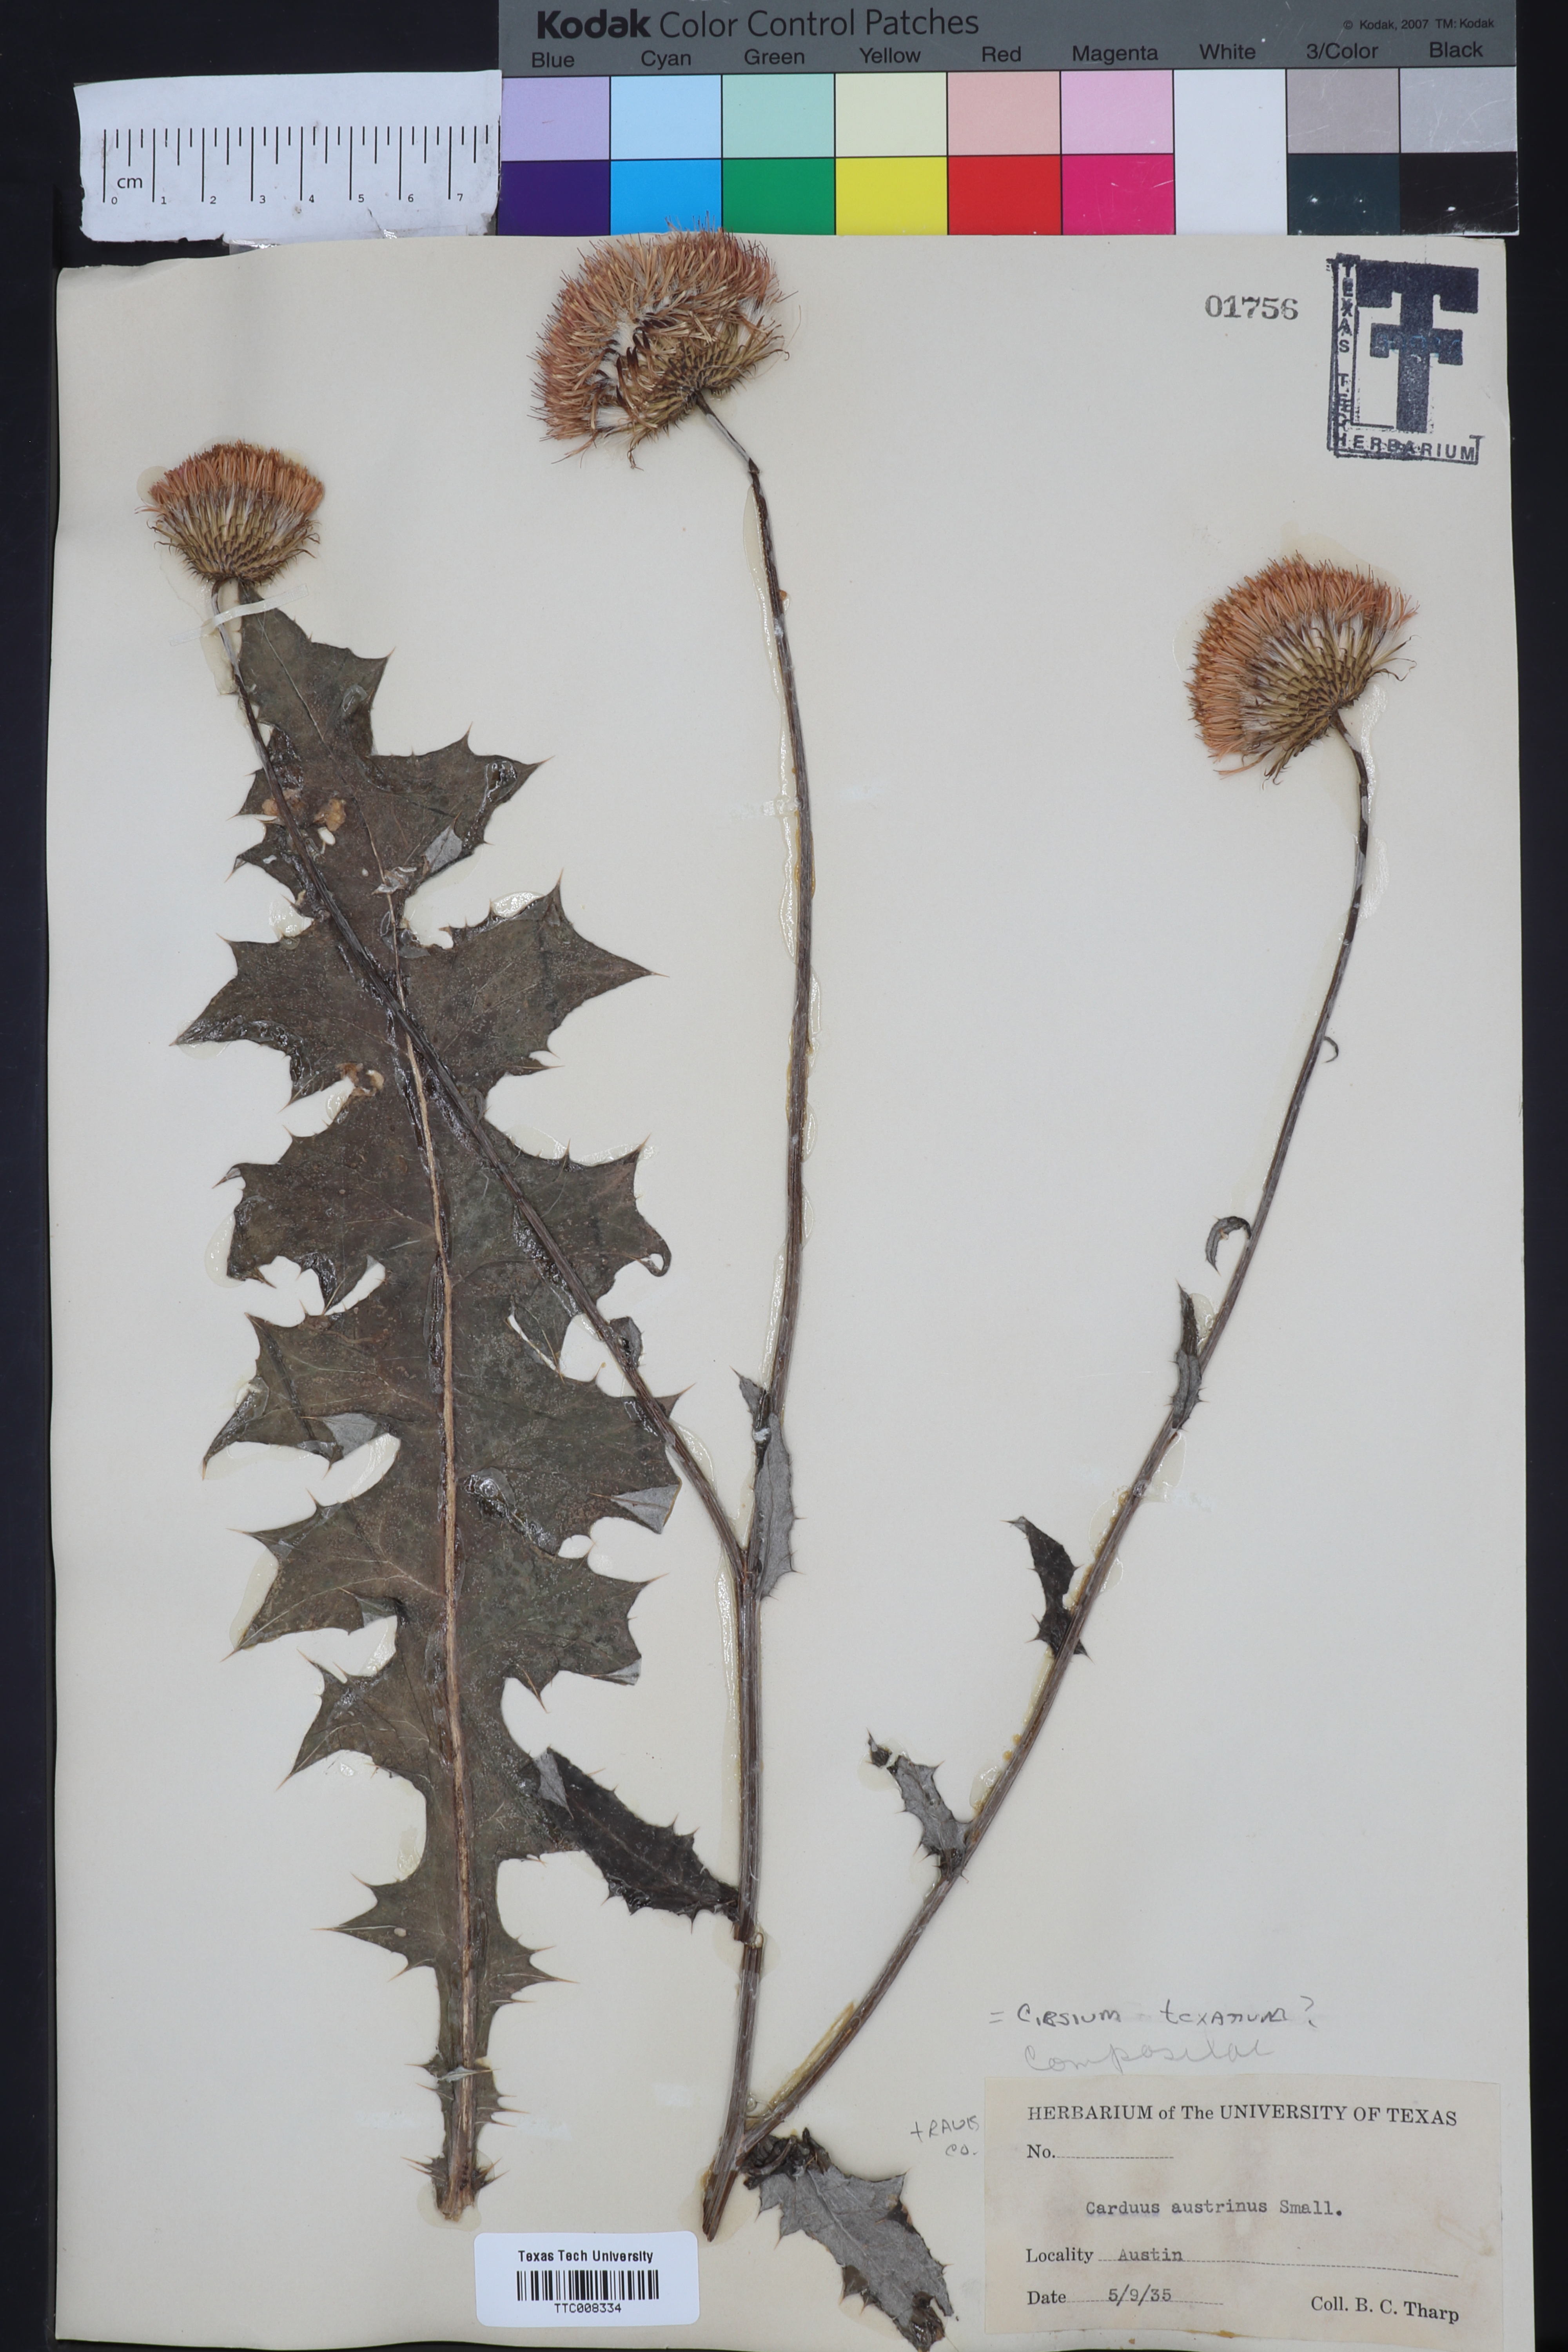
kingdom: Plantae
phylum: Tracheophyta
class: Magnoliopsida
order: Asterales
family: Asteraceae
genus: Cirsium
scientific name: Cirsium texanum
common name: Texas purple thistle
